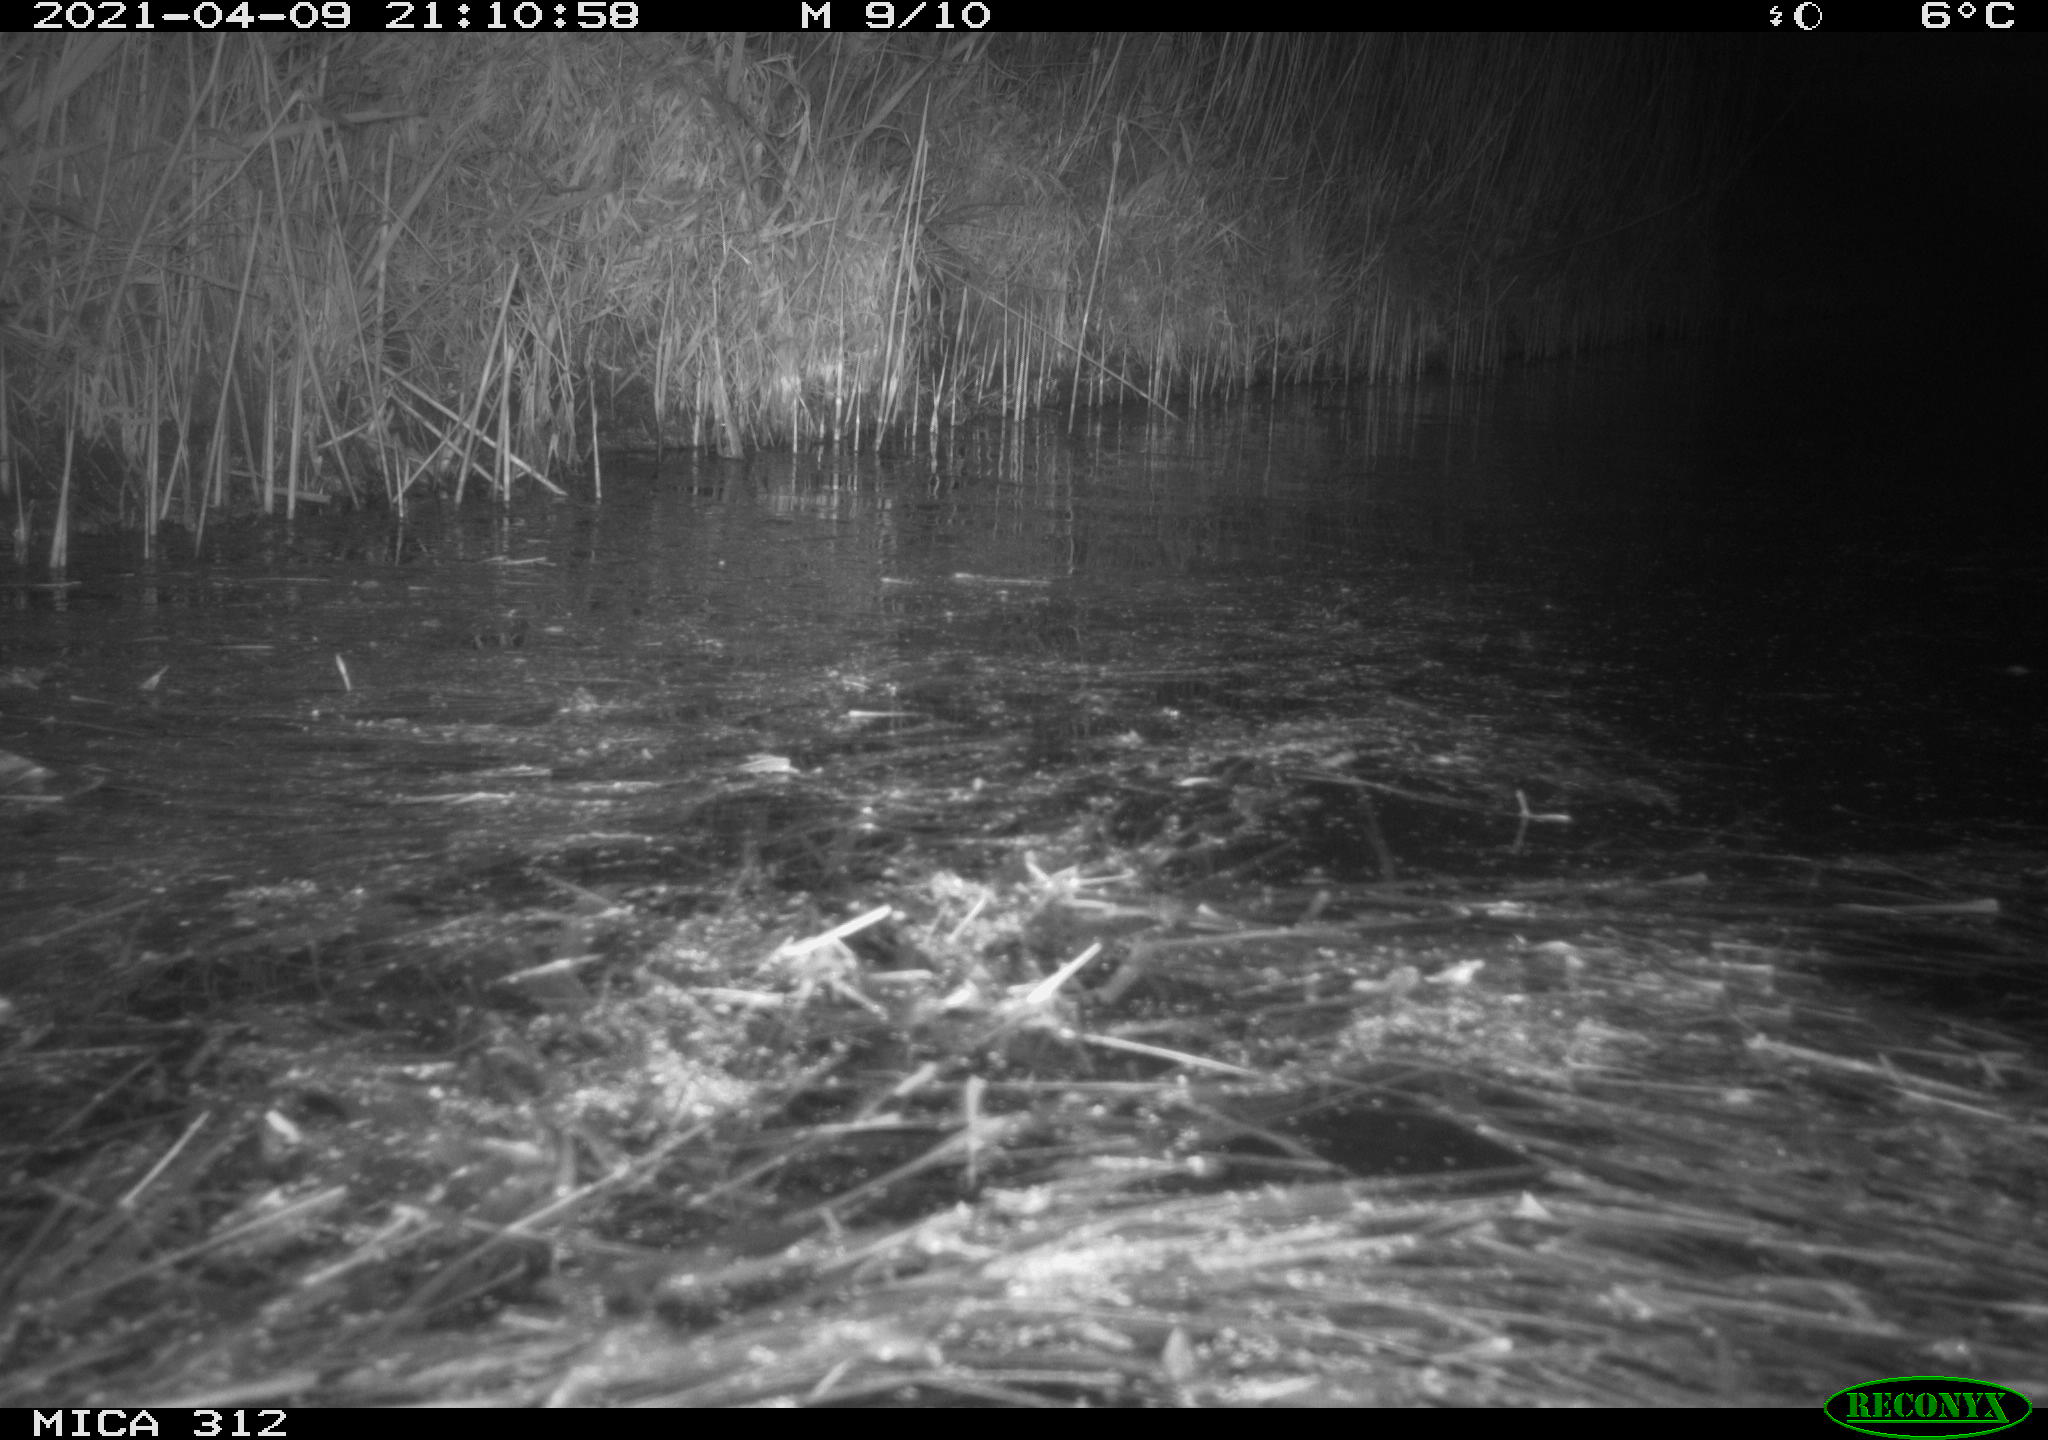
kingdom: Animalia
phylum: Chordata
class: Aves
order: Anseriformes
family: Anatidae
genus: Anas
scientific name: Anas platyrhynchos
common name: Mallard
